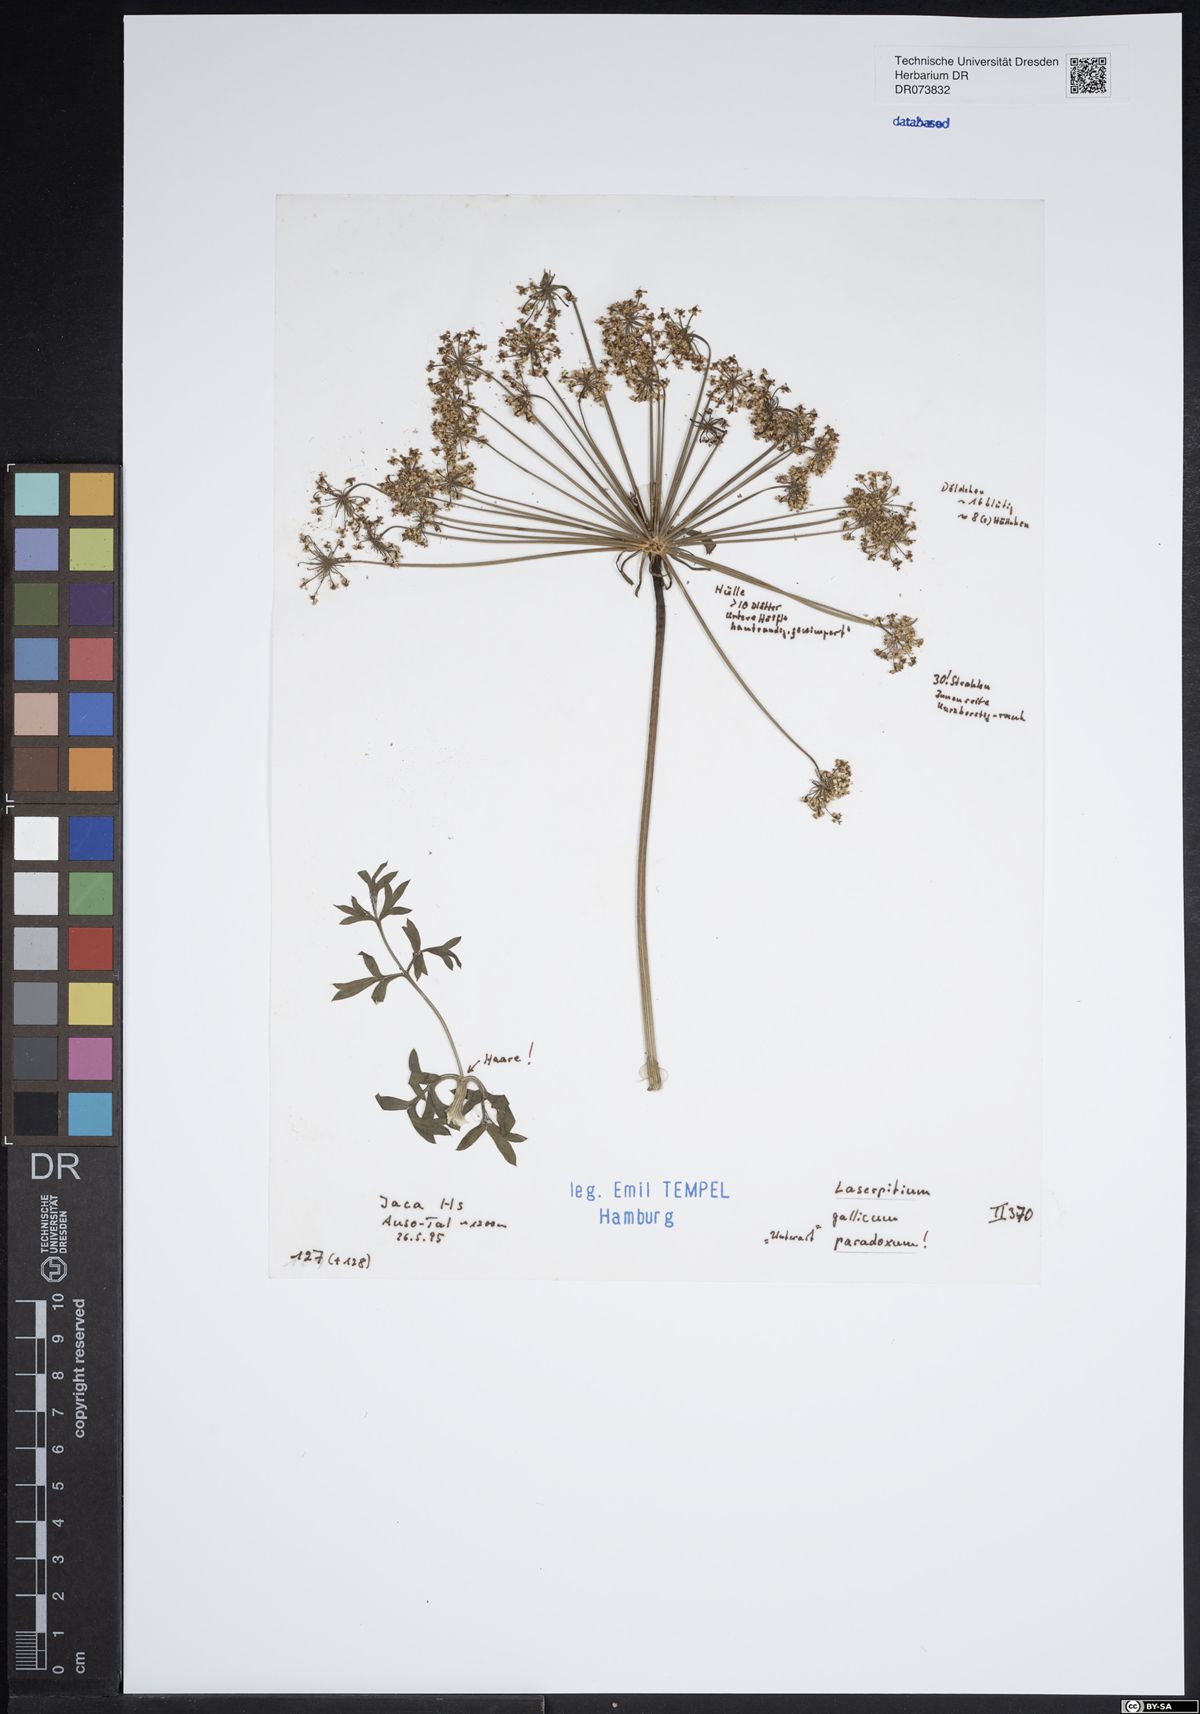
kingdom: Plantae
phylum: Tracheophyta
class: Magnoliopsida
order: Apiales
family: Apiaceae
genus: Laserpitium
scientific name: Laserpitium gallicum
